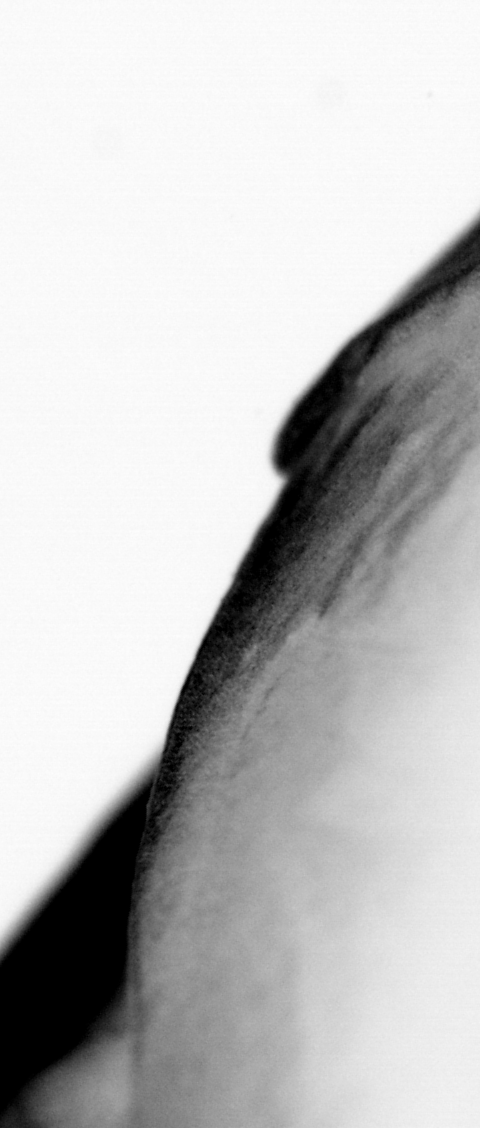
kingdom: Animalia
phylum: Chordata
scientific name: Chordata
